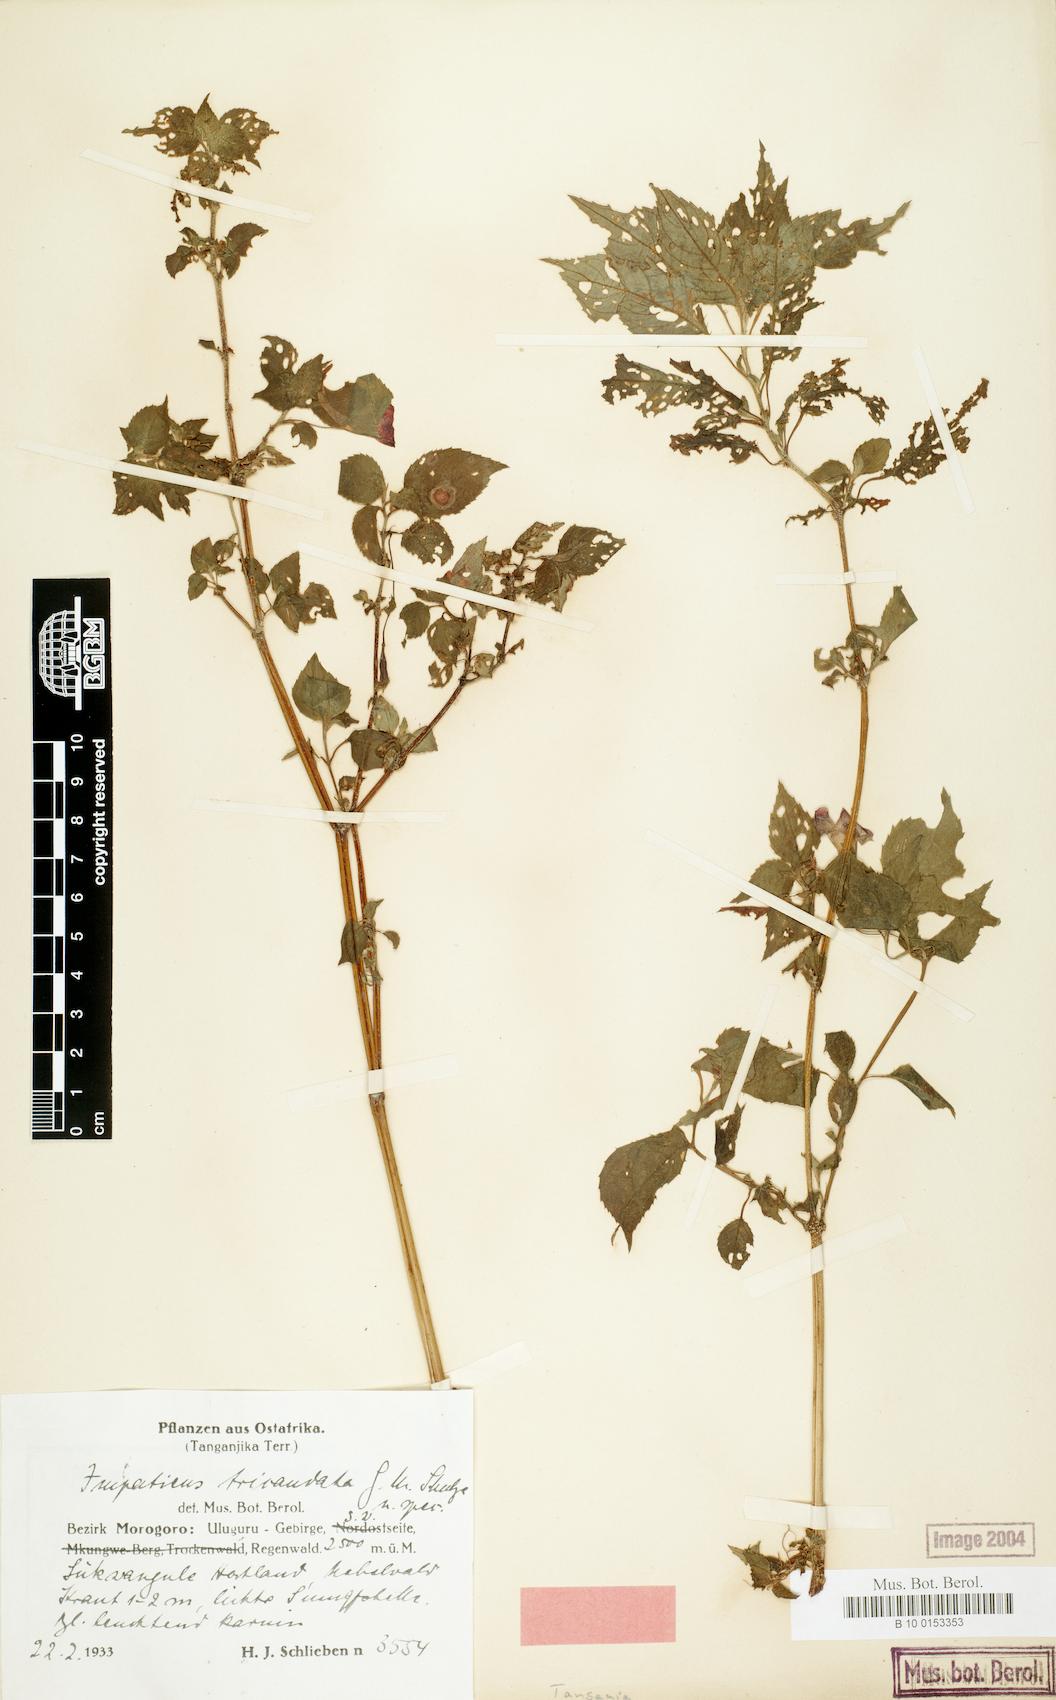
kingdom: Plantae
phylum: Tracheophyta
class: Magnoliopsida
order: Ericales
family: Balsaminaceae
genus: Impatiens
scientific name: Impatiens tricaudata
